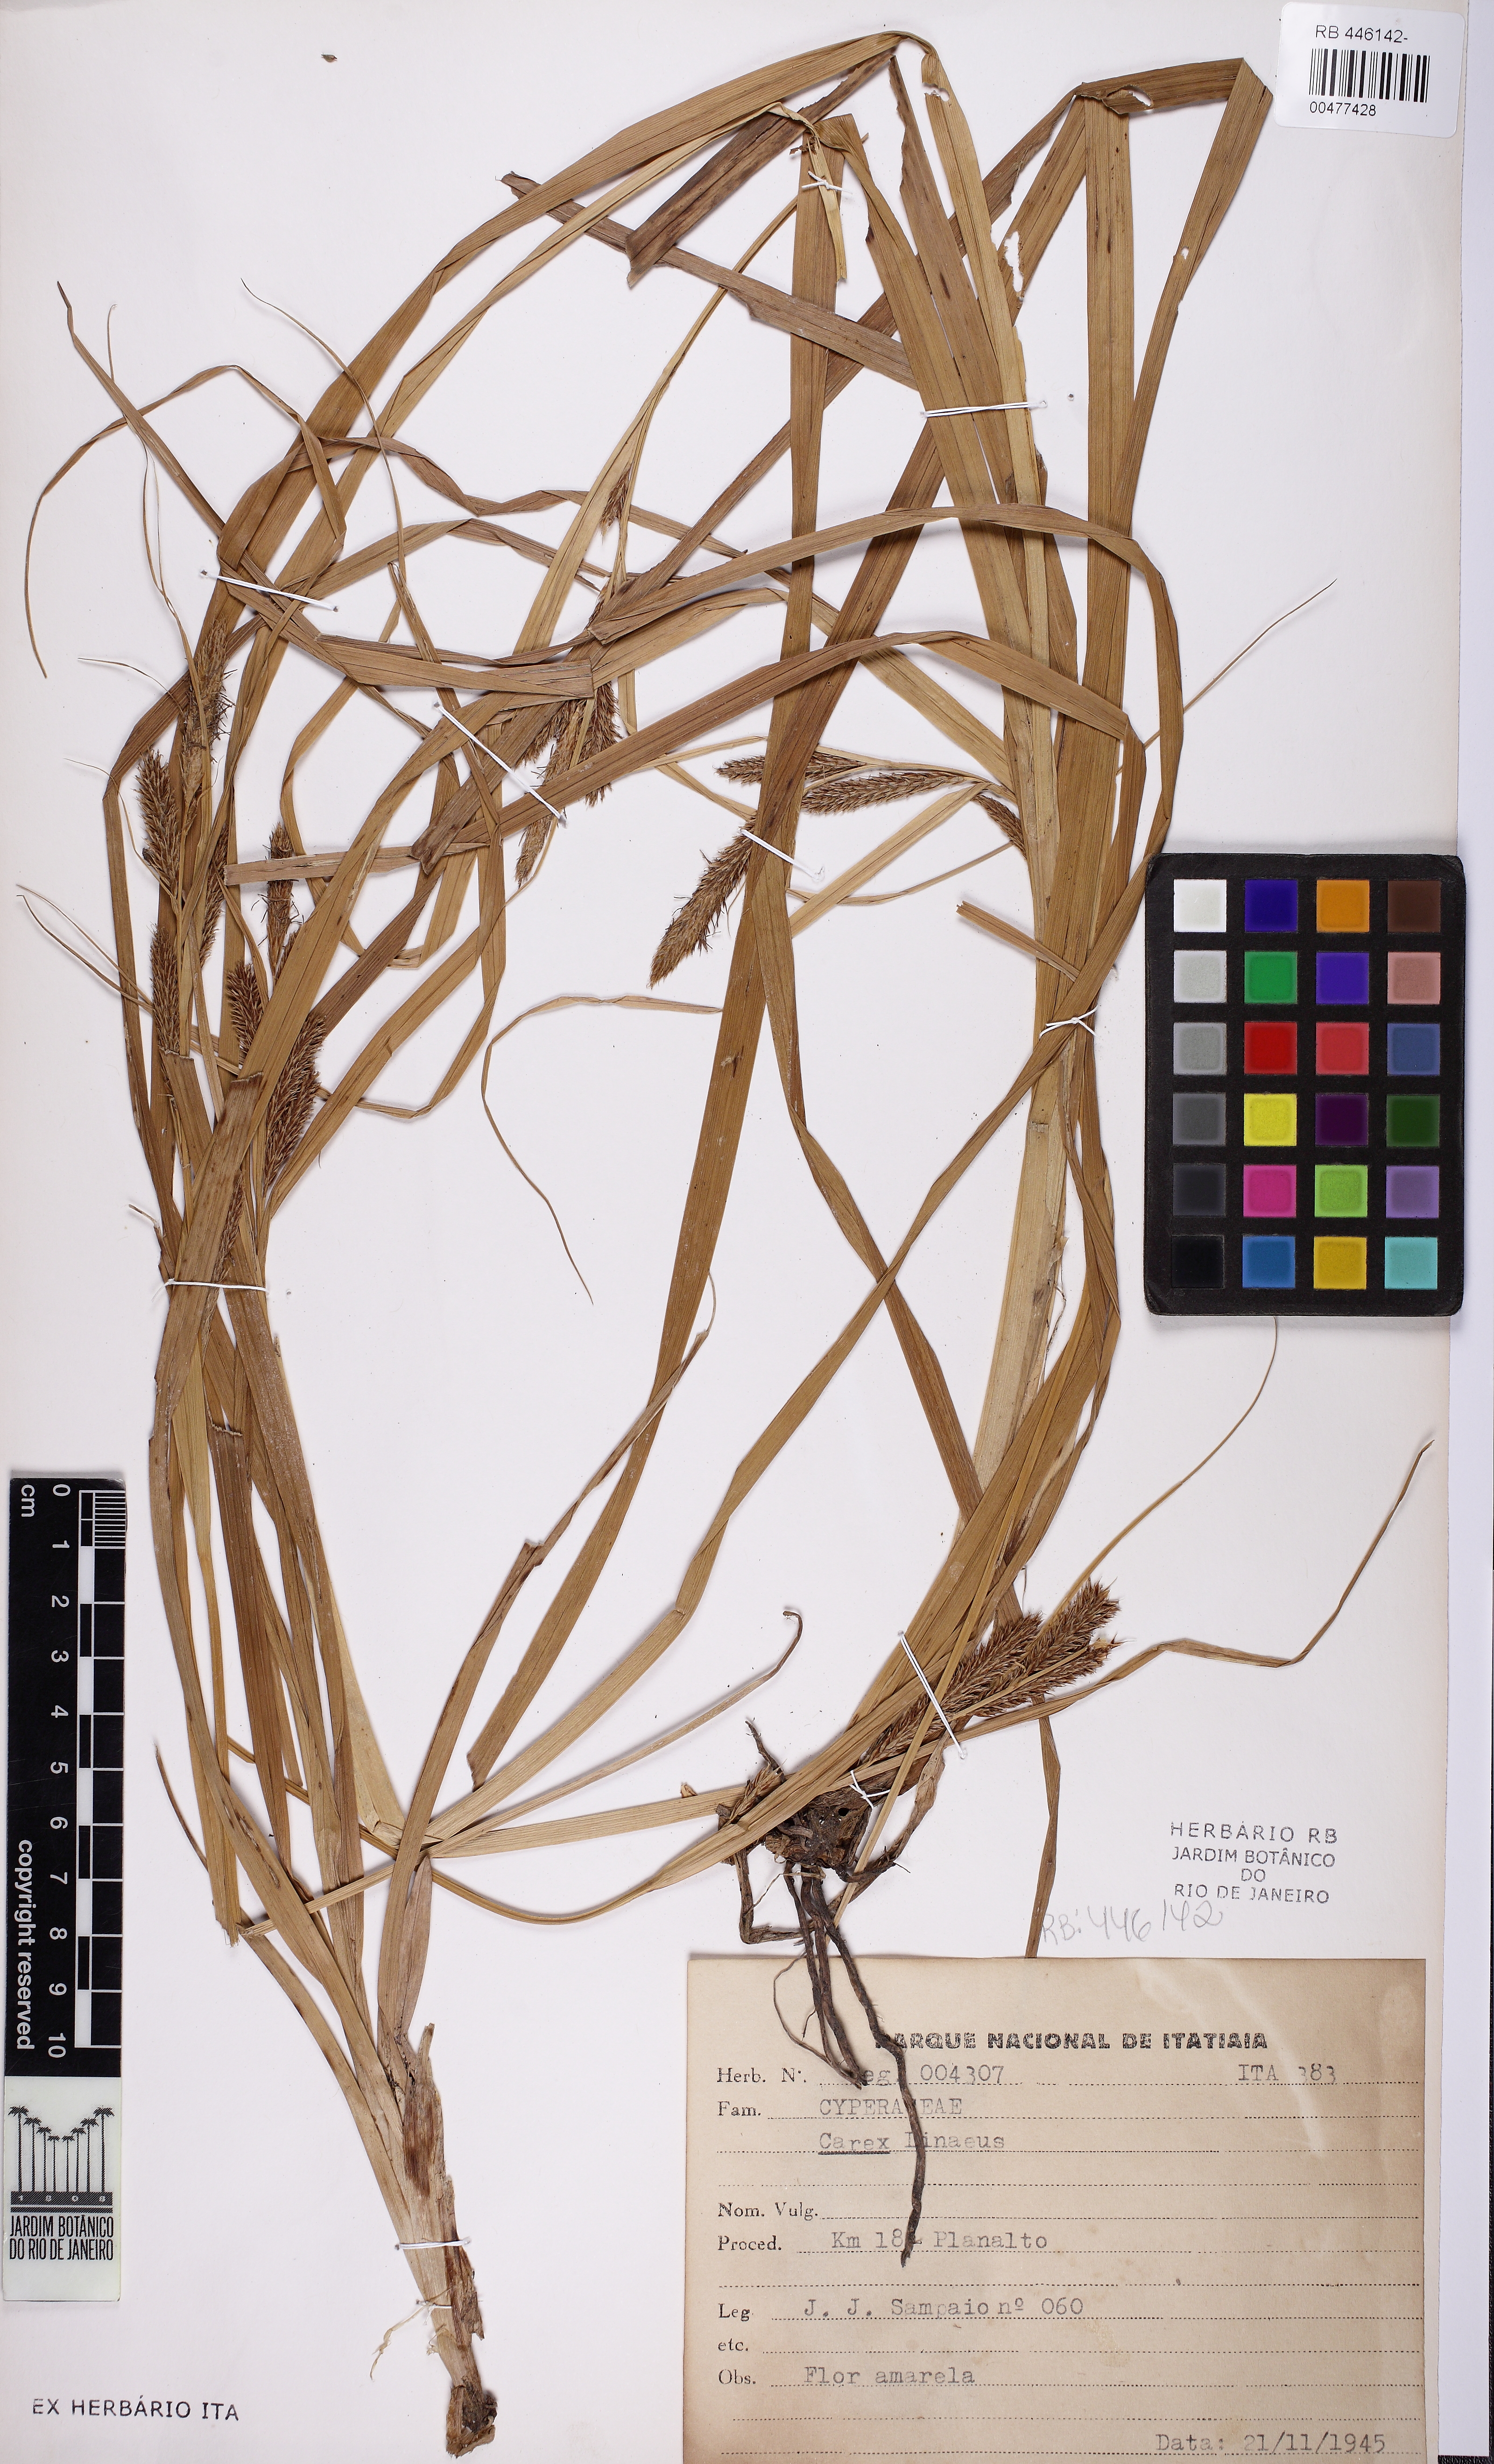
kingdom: Plantae
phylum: Tracheophyta
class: Liliopsida
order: Poales
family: Cyperaceae
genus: Carex
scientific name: Carex
